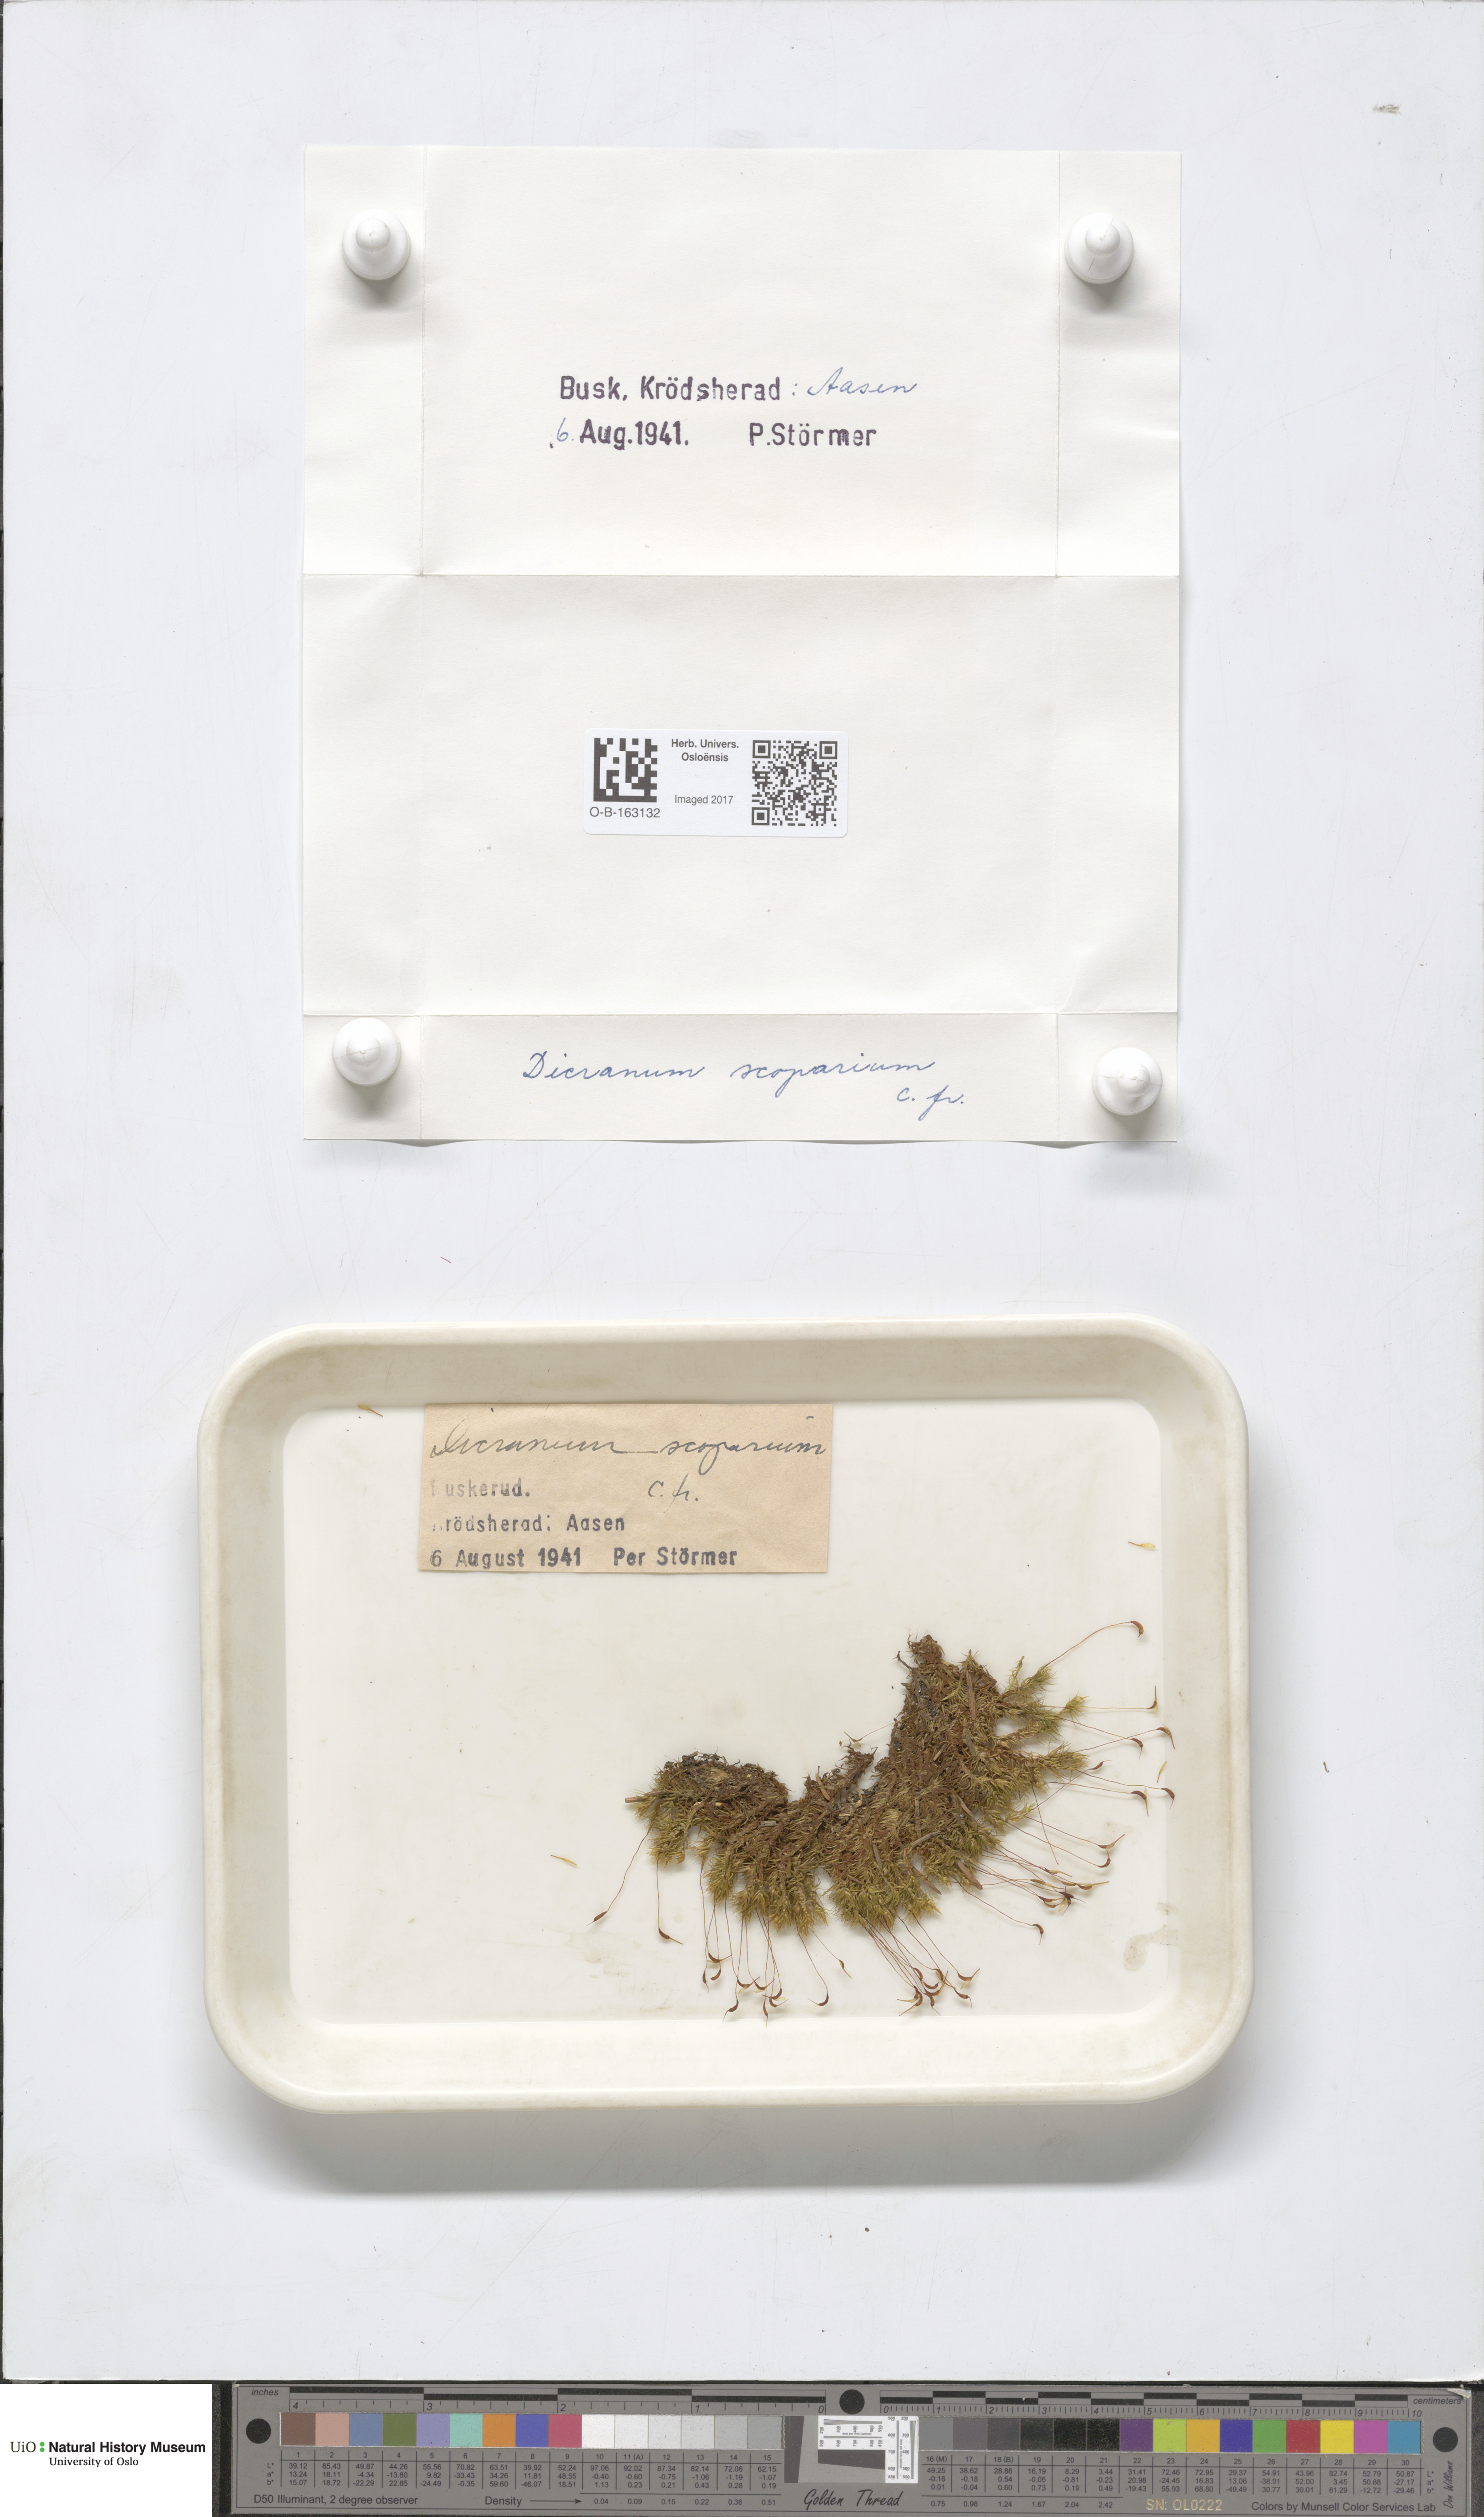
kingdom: Plantae
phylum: Bryophyta
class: Bryopsida
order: Dicranales
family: Dicranaceae
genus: Dicranum
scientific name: Dicranum scoparium
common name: Broom fork-moss
